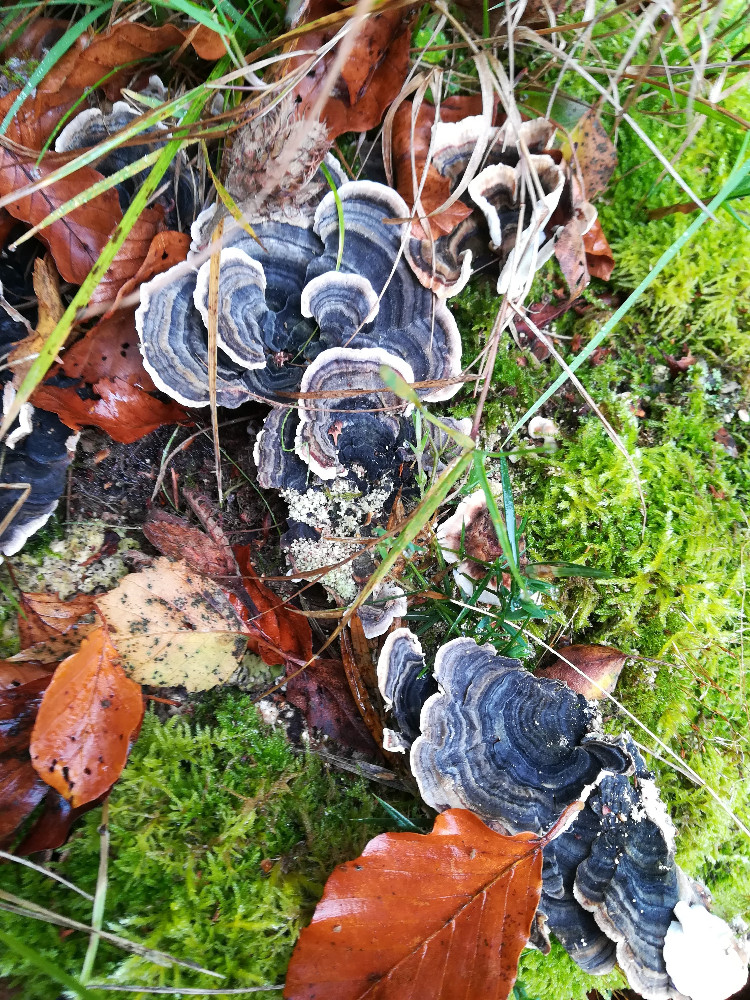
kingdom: Fungi
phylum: Basidiomycota
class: Agaricomycetes
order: Polyporales
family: Polyporaceae
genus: Trametes
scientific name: Trametes versicolor
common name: broget læderporesvamp
